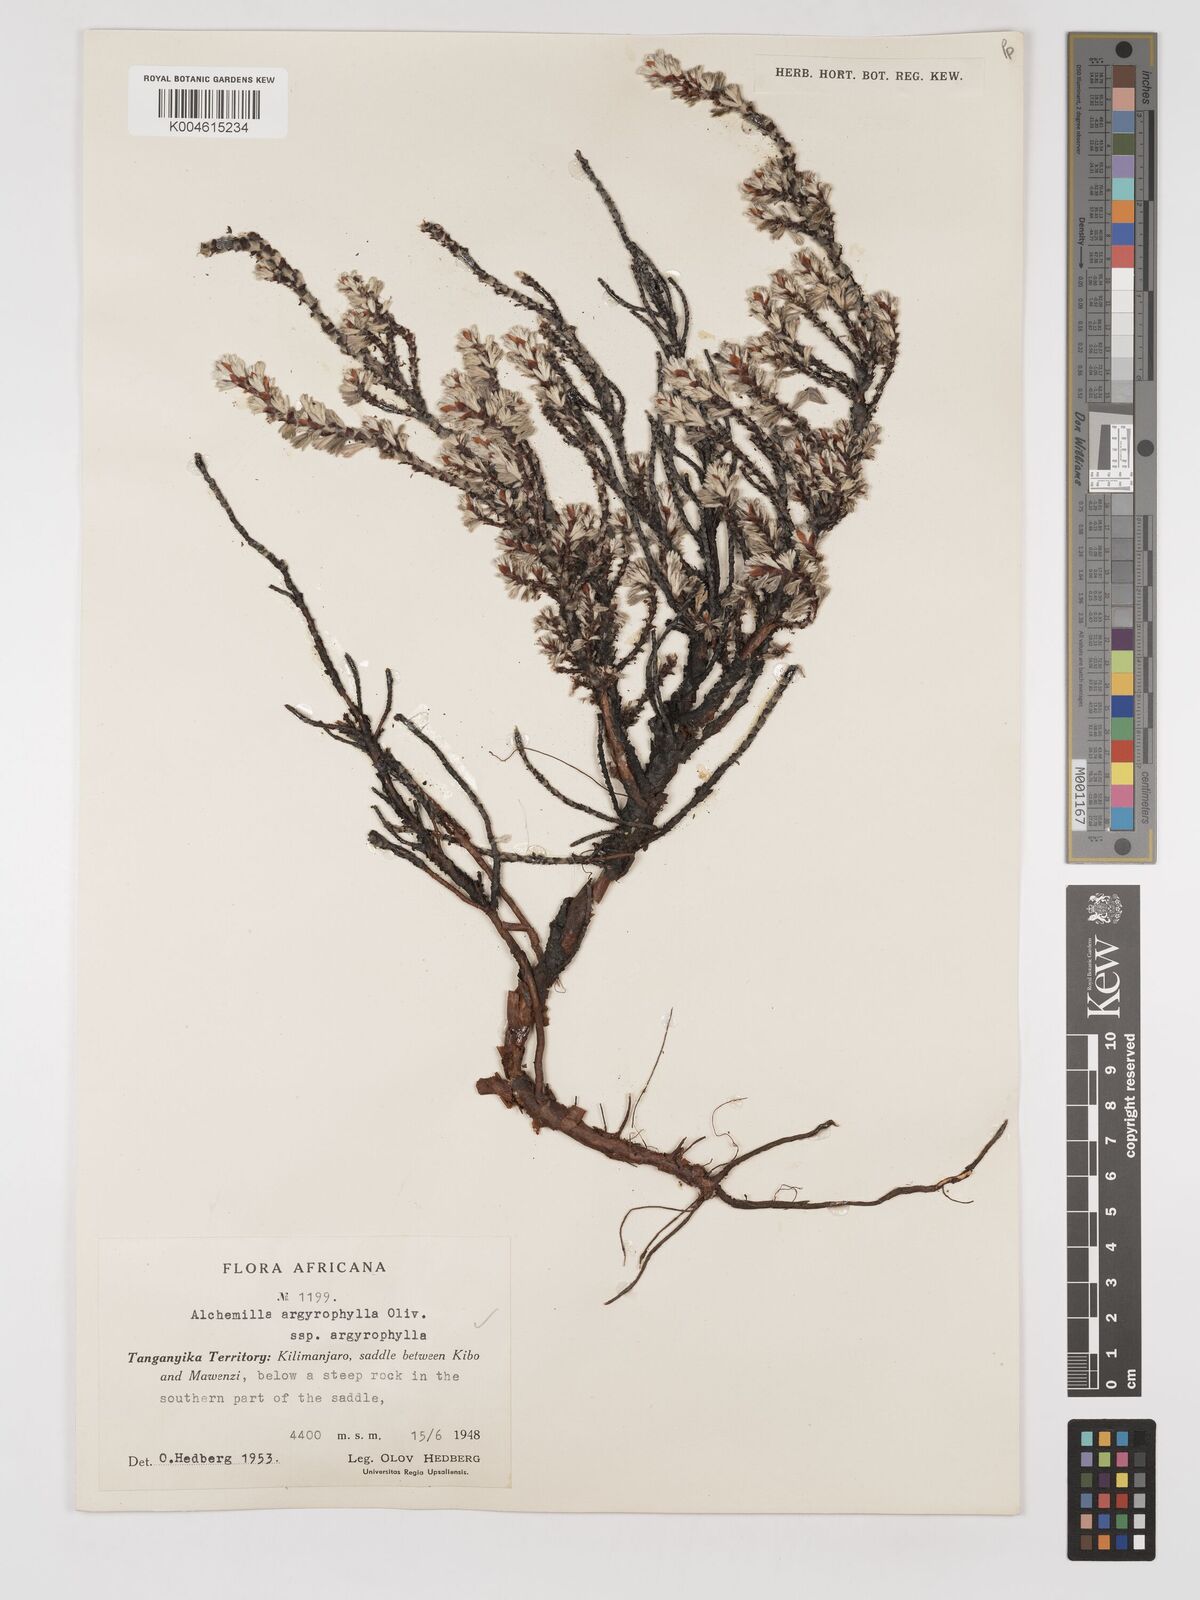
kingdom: Plantae
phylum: Tracheophyta
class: Magnoliopsida
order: Rosales
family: Rosaceae
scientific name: Rosaceae
